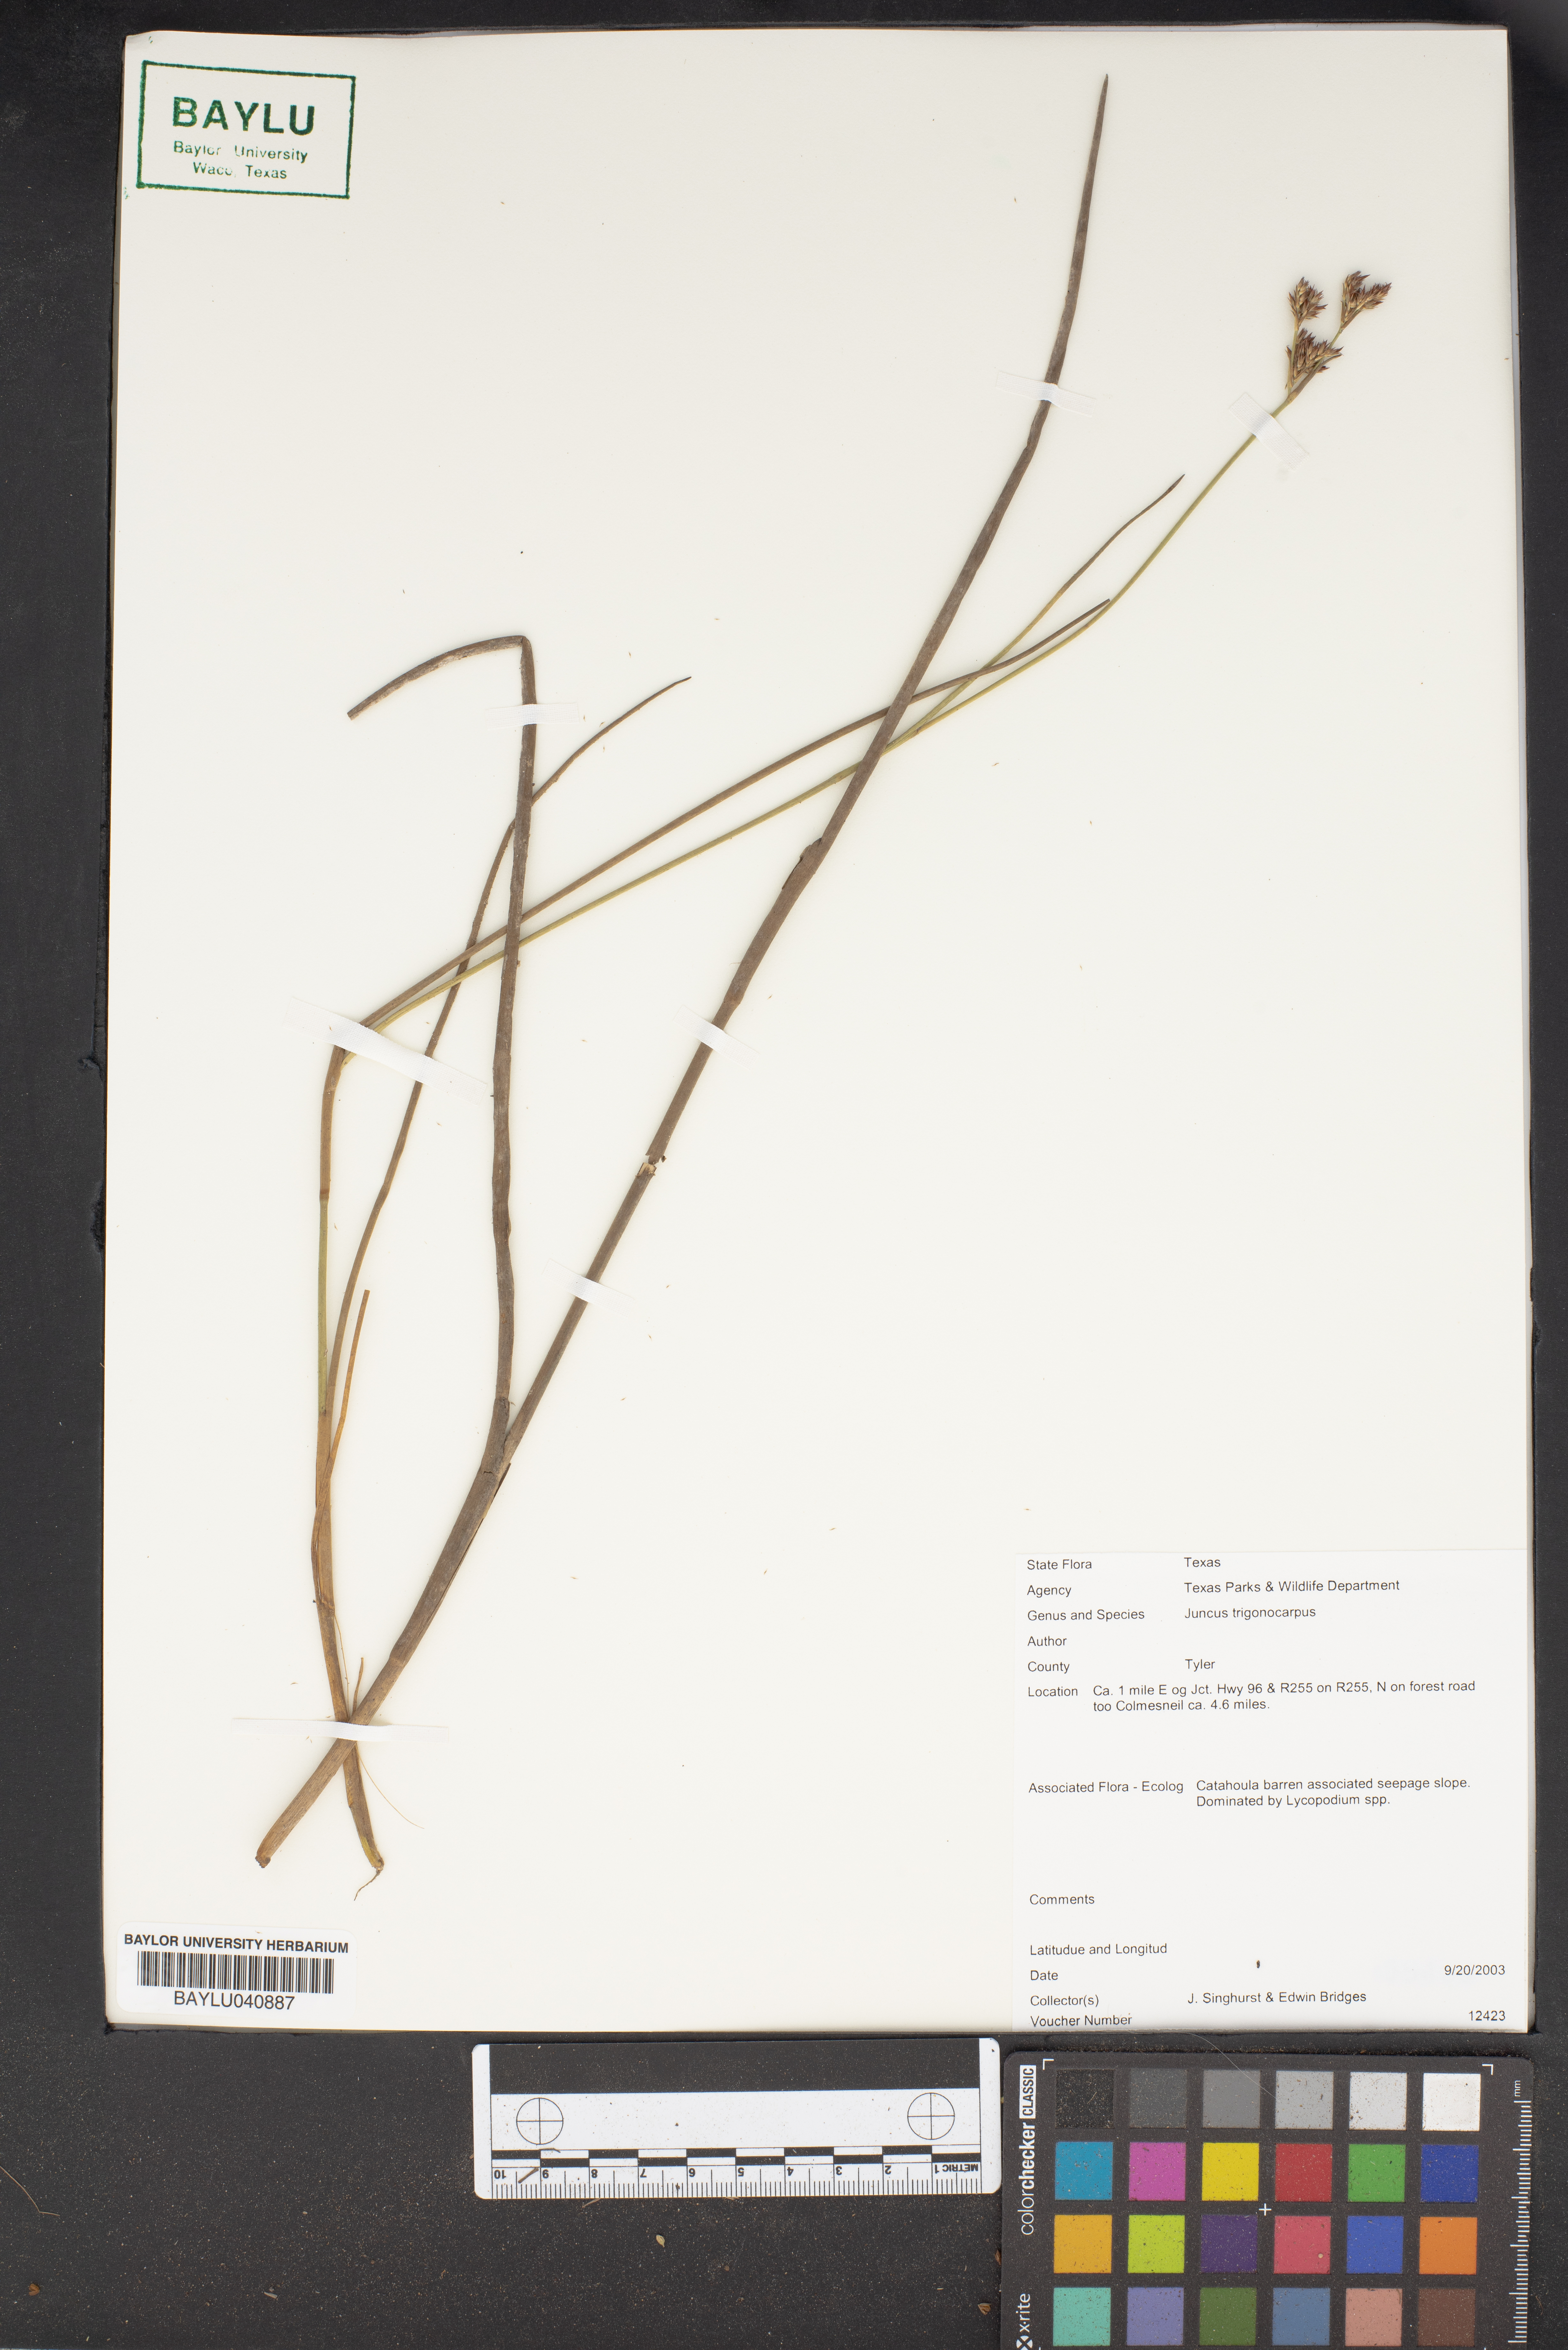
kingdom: Plantae
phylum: Tracheophyta
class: Liliopsida
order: Poales
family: Juncaceae
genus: Juncus
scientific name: Juncus trigonocarpus
